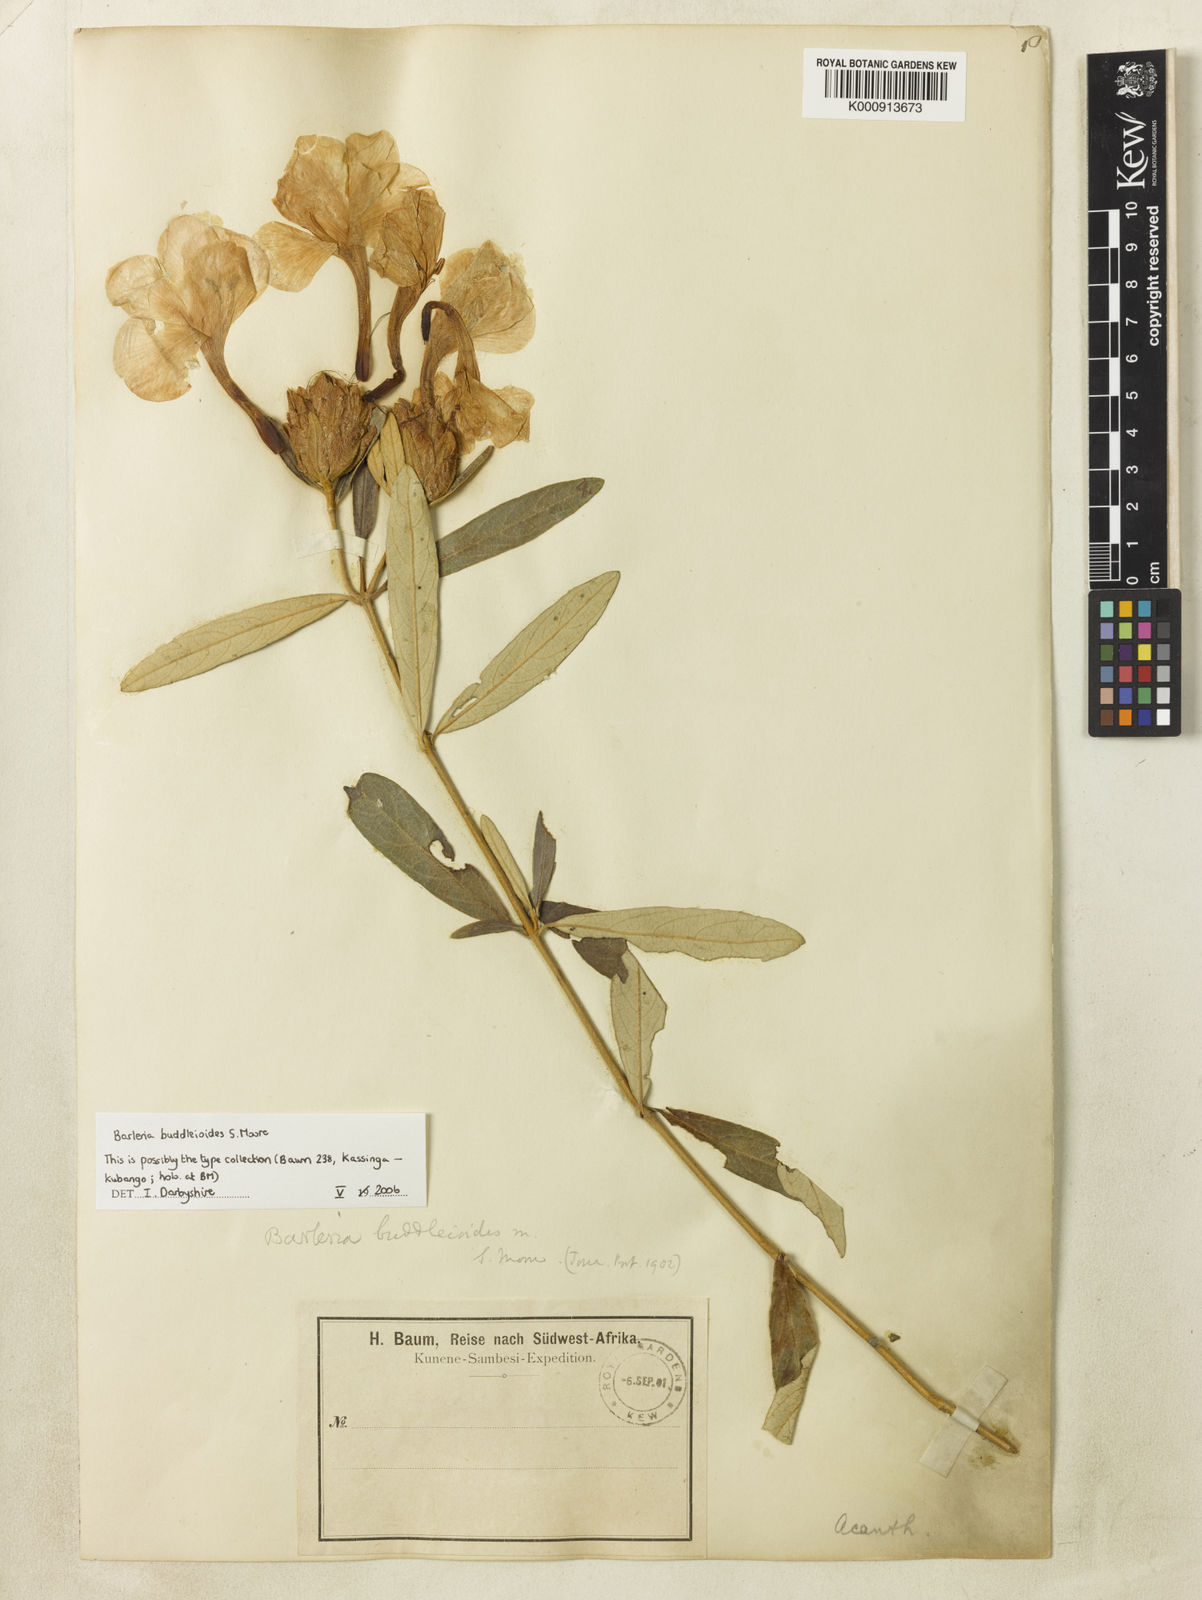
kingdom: Plantae
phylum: Tracheophyta
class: Magnoliopsida
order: Lamiales
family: Acanthaceae
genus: Barleria
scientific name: Barleria buddleioides
